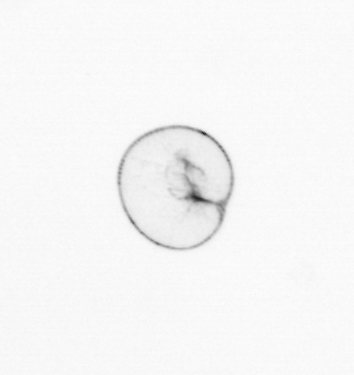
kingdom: Chromista
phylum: Myzozoa
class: Dinophyceae
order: Noctilucales
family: Noctilucaceae
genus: Noctiluca
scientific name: Noctiluca scintillans
